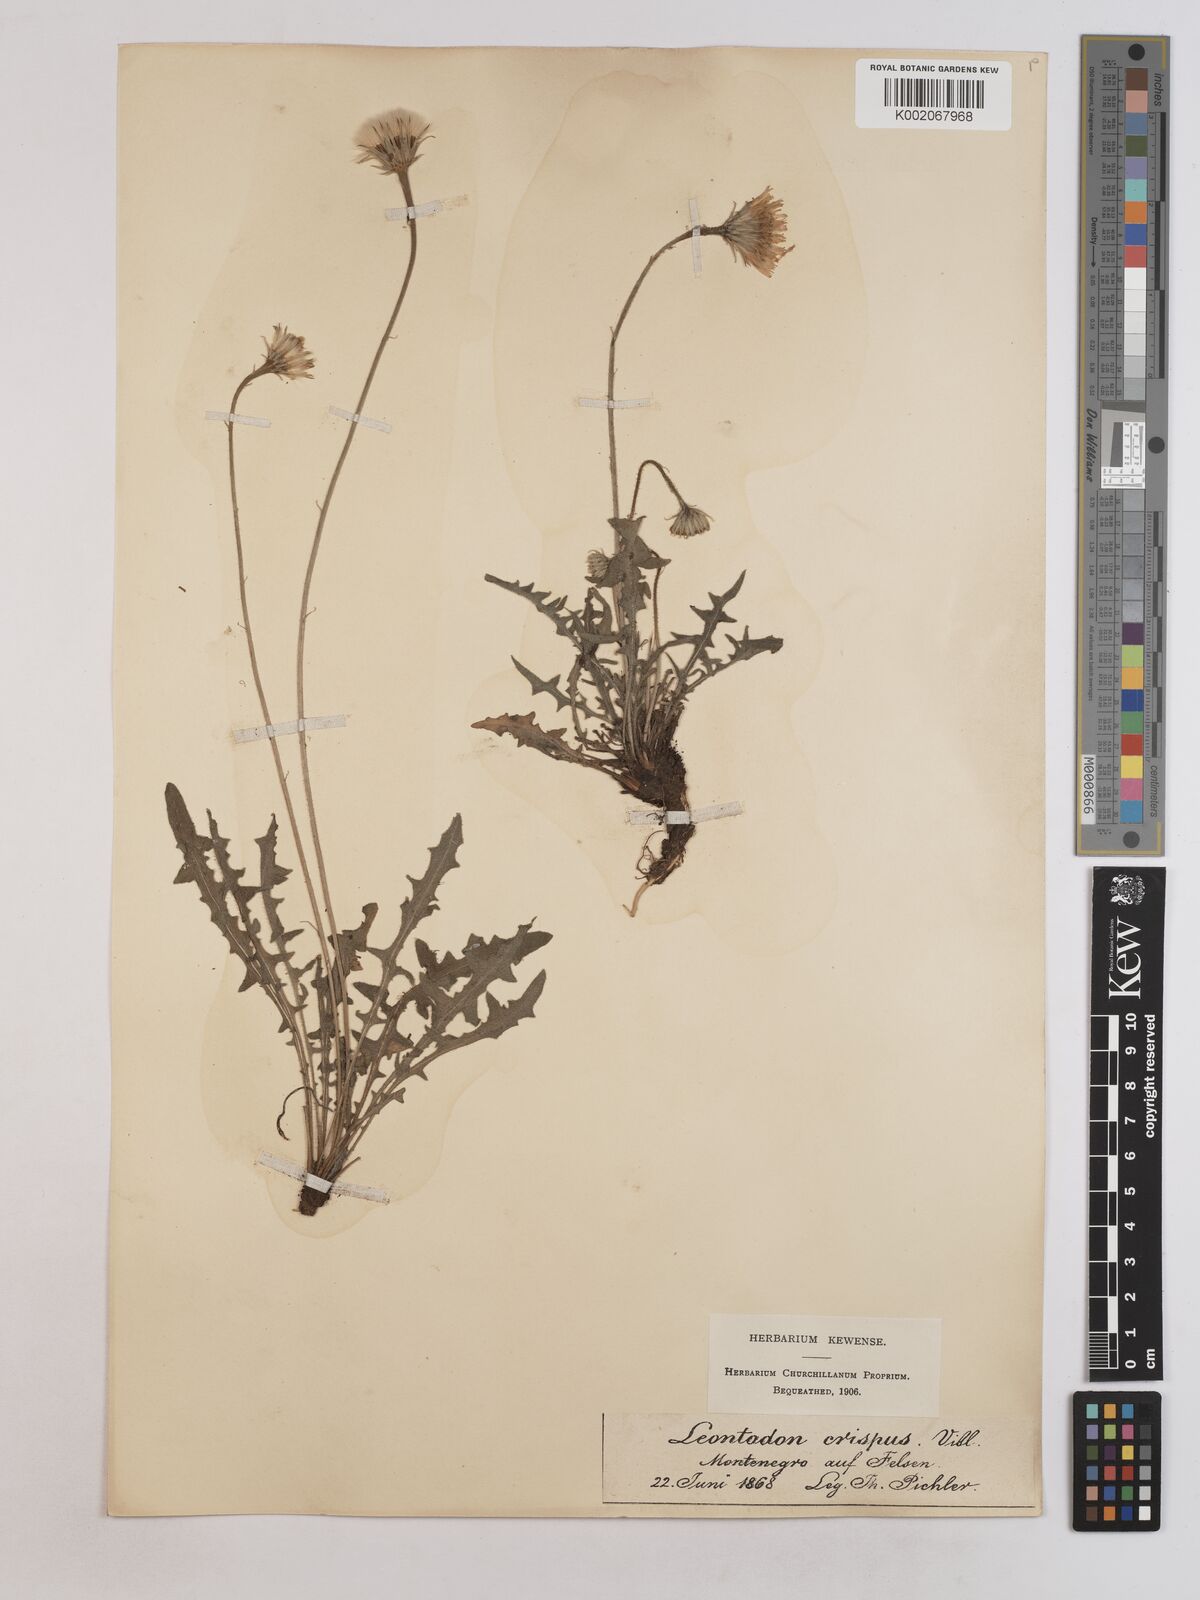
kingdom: Plantae
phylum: Tracheophyta
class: Magnoliopsida
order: Asterales
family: Asteraceae
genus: Leontodon
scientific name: Leontodon crispus
